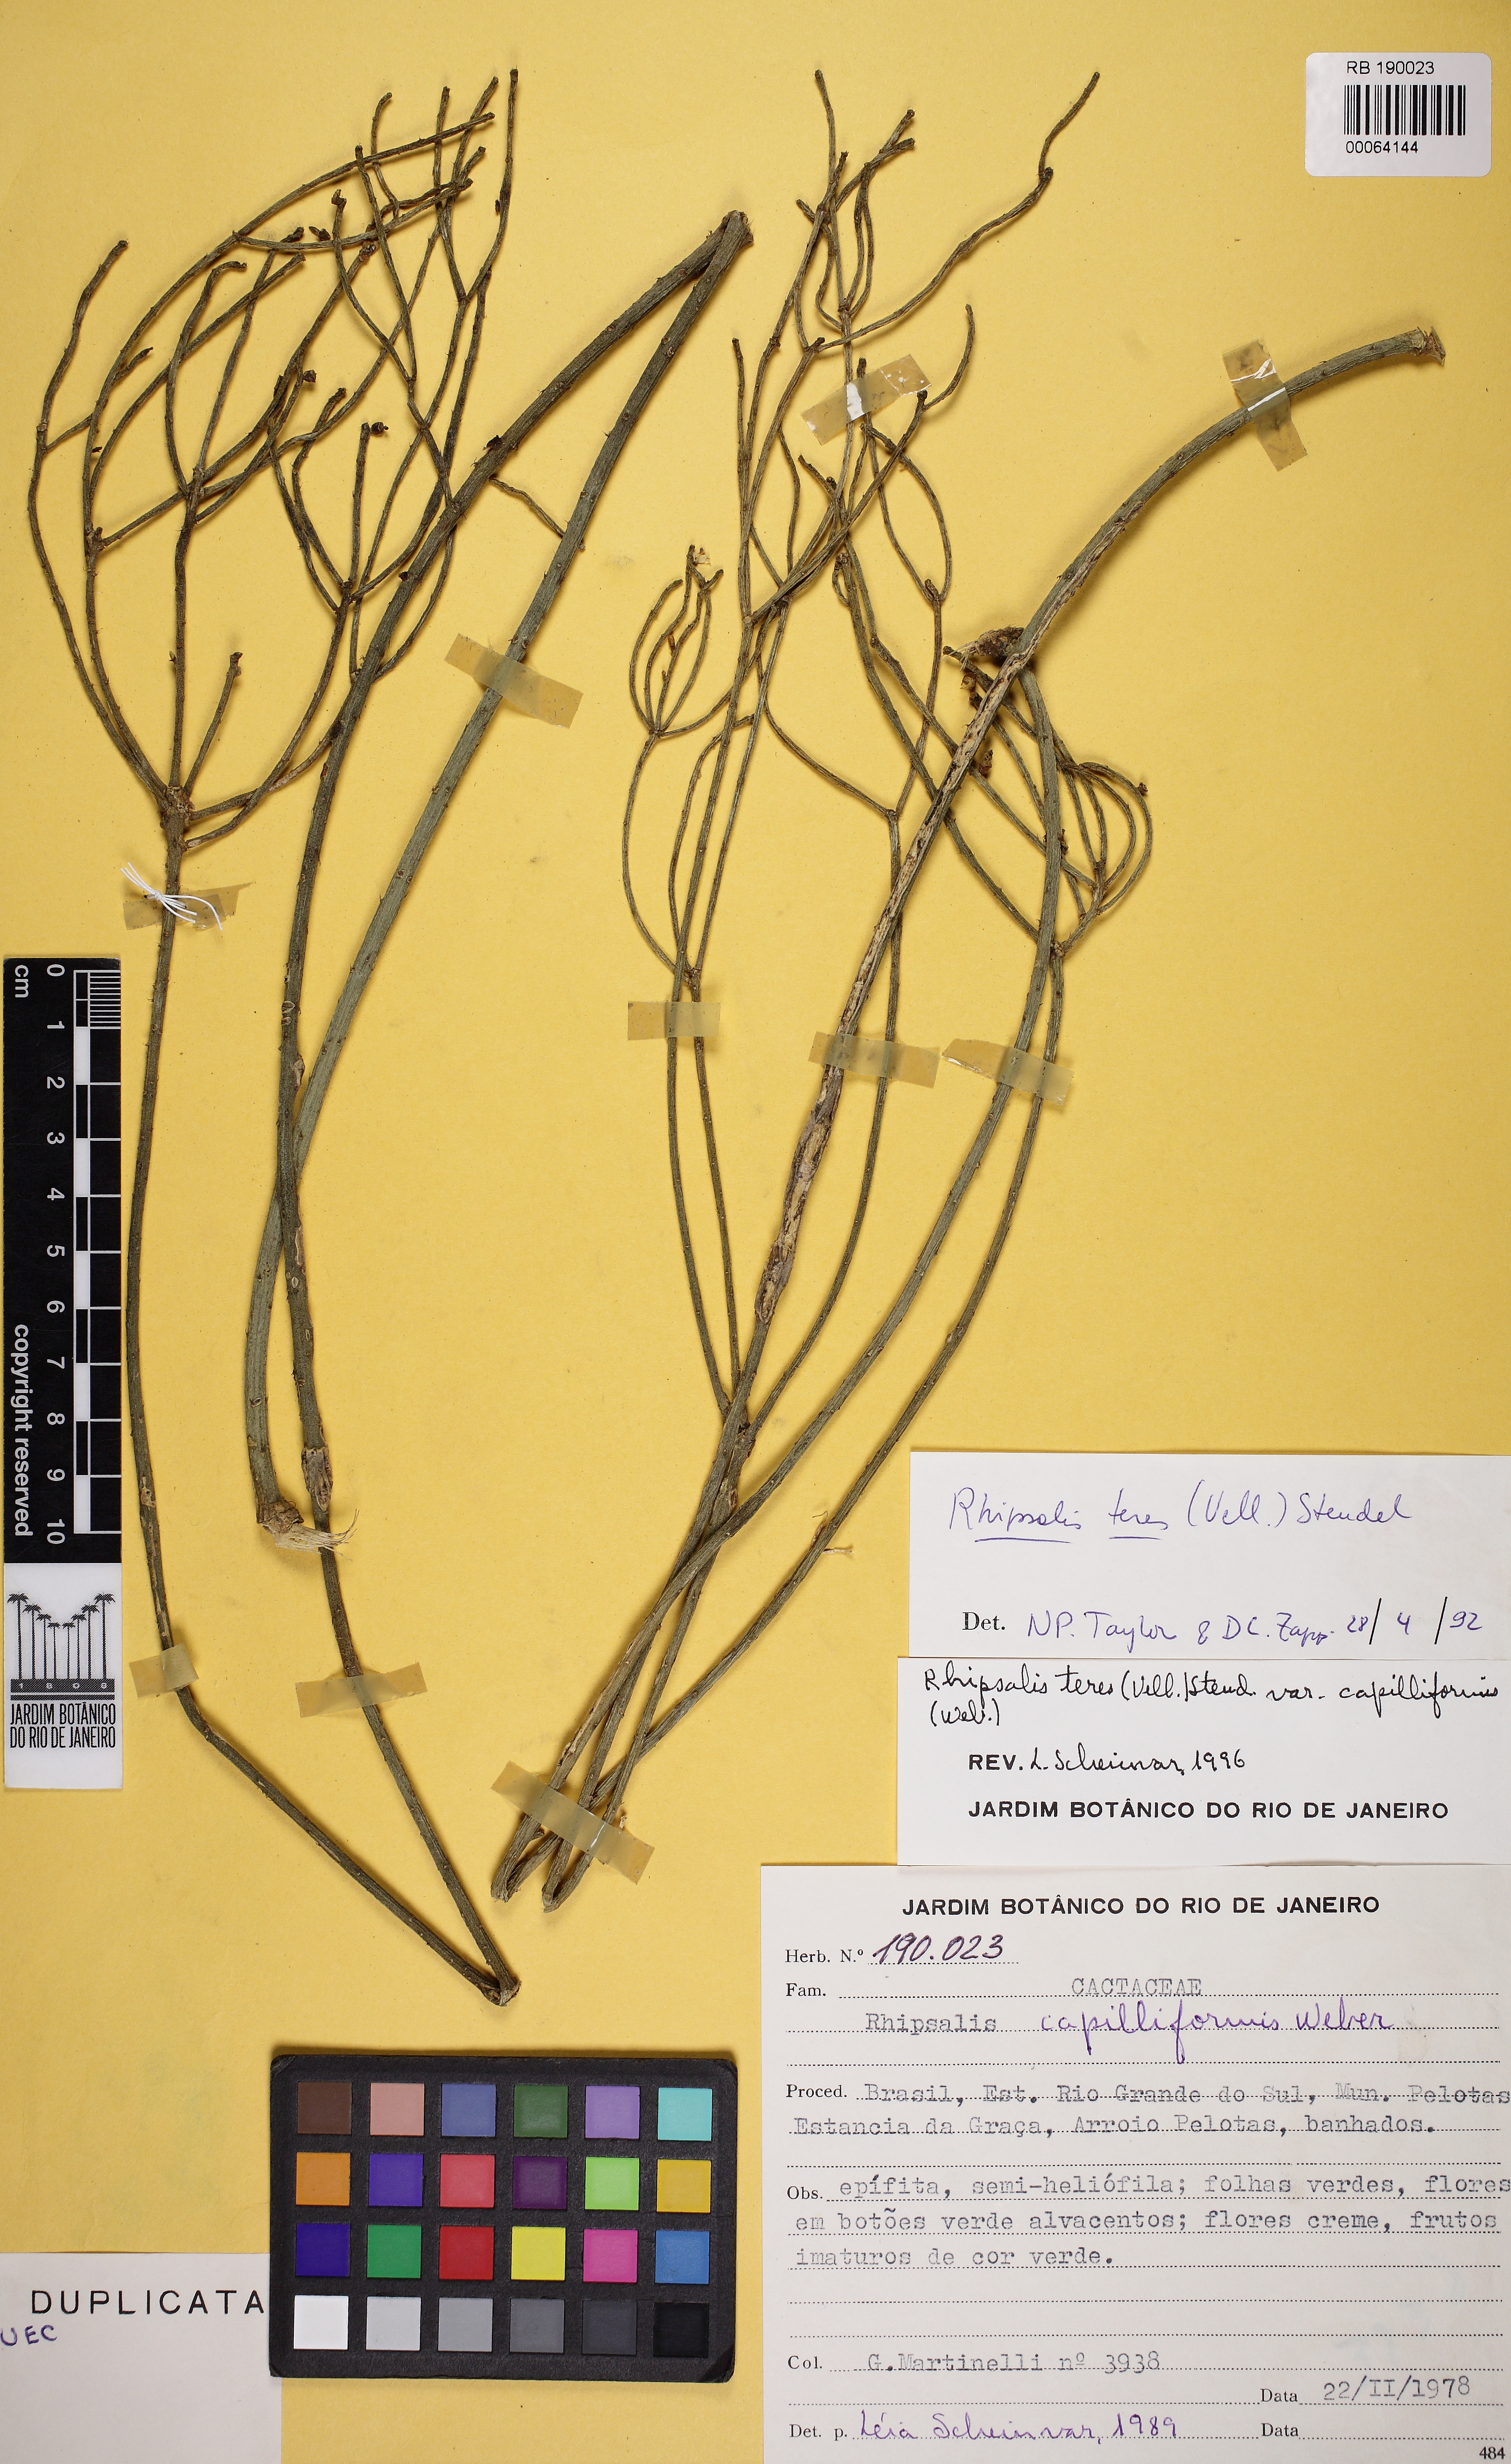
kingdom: Plantae
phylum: Tracheophyta
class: Magnoliopsida
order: Caryophyllales
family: Cactaceae
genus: Rhipsalis
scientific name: Rhipsalis teres
